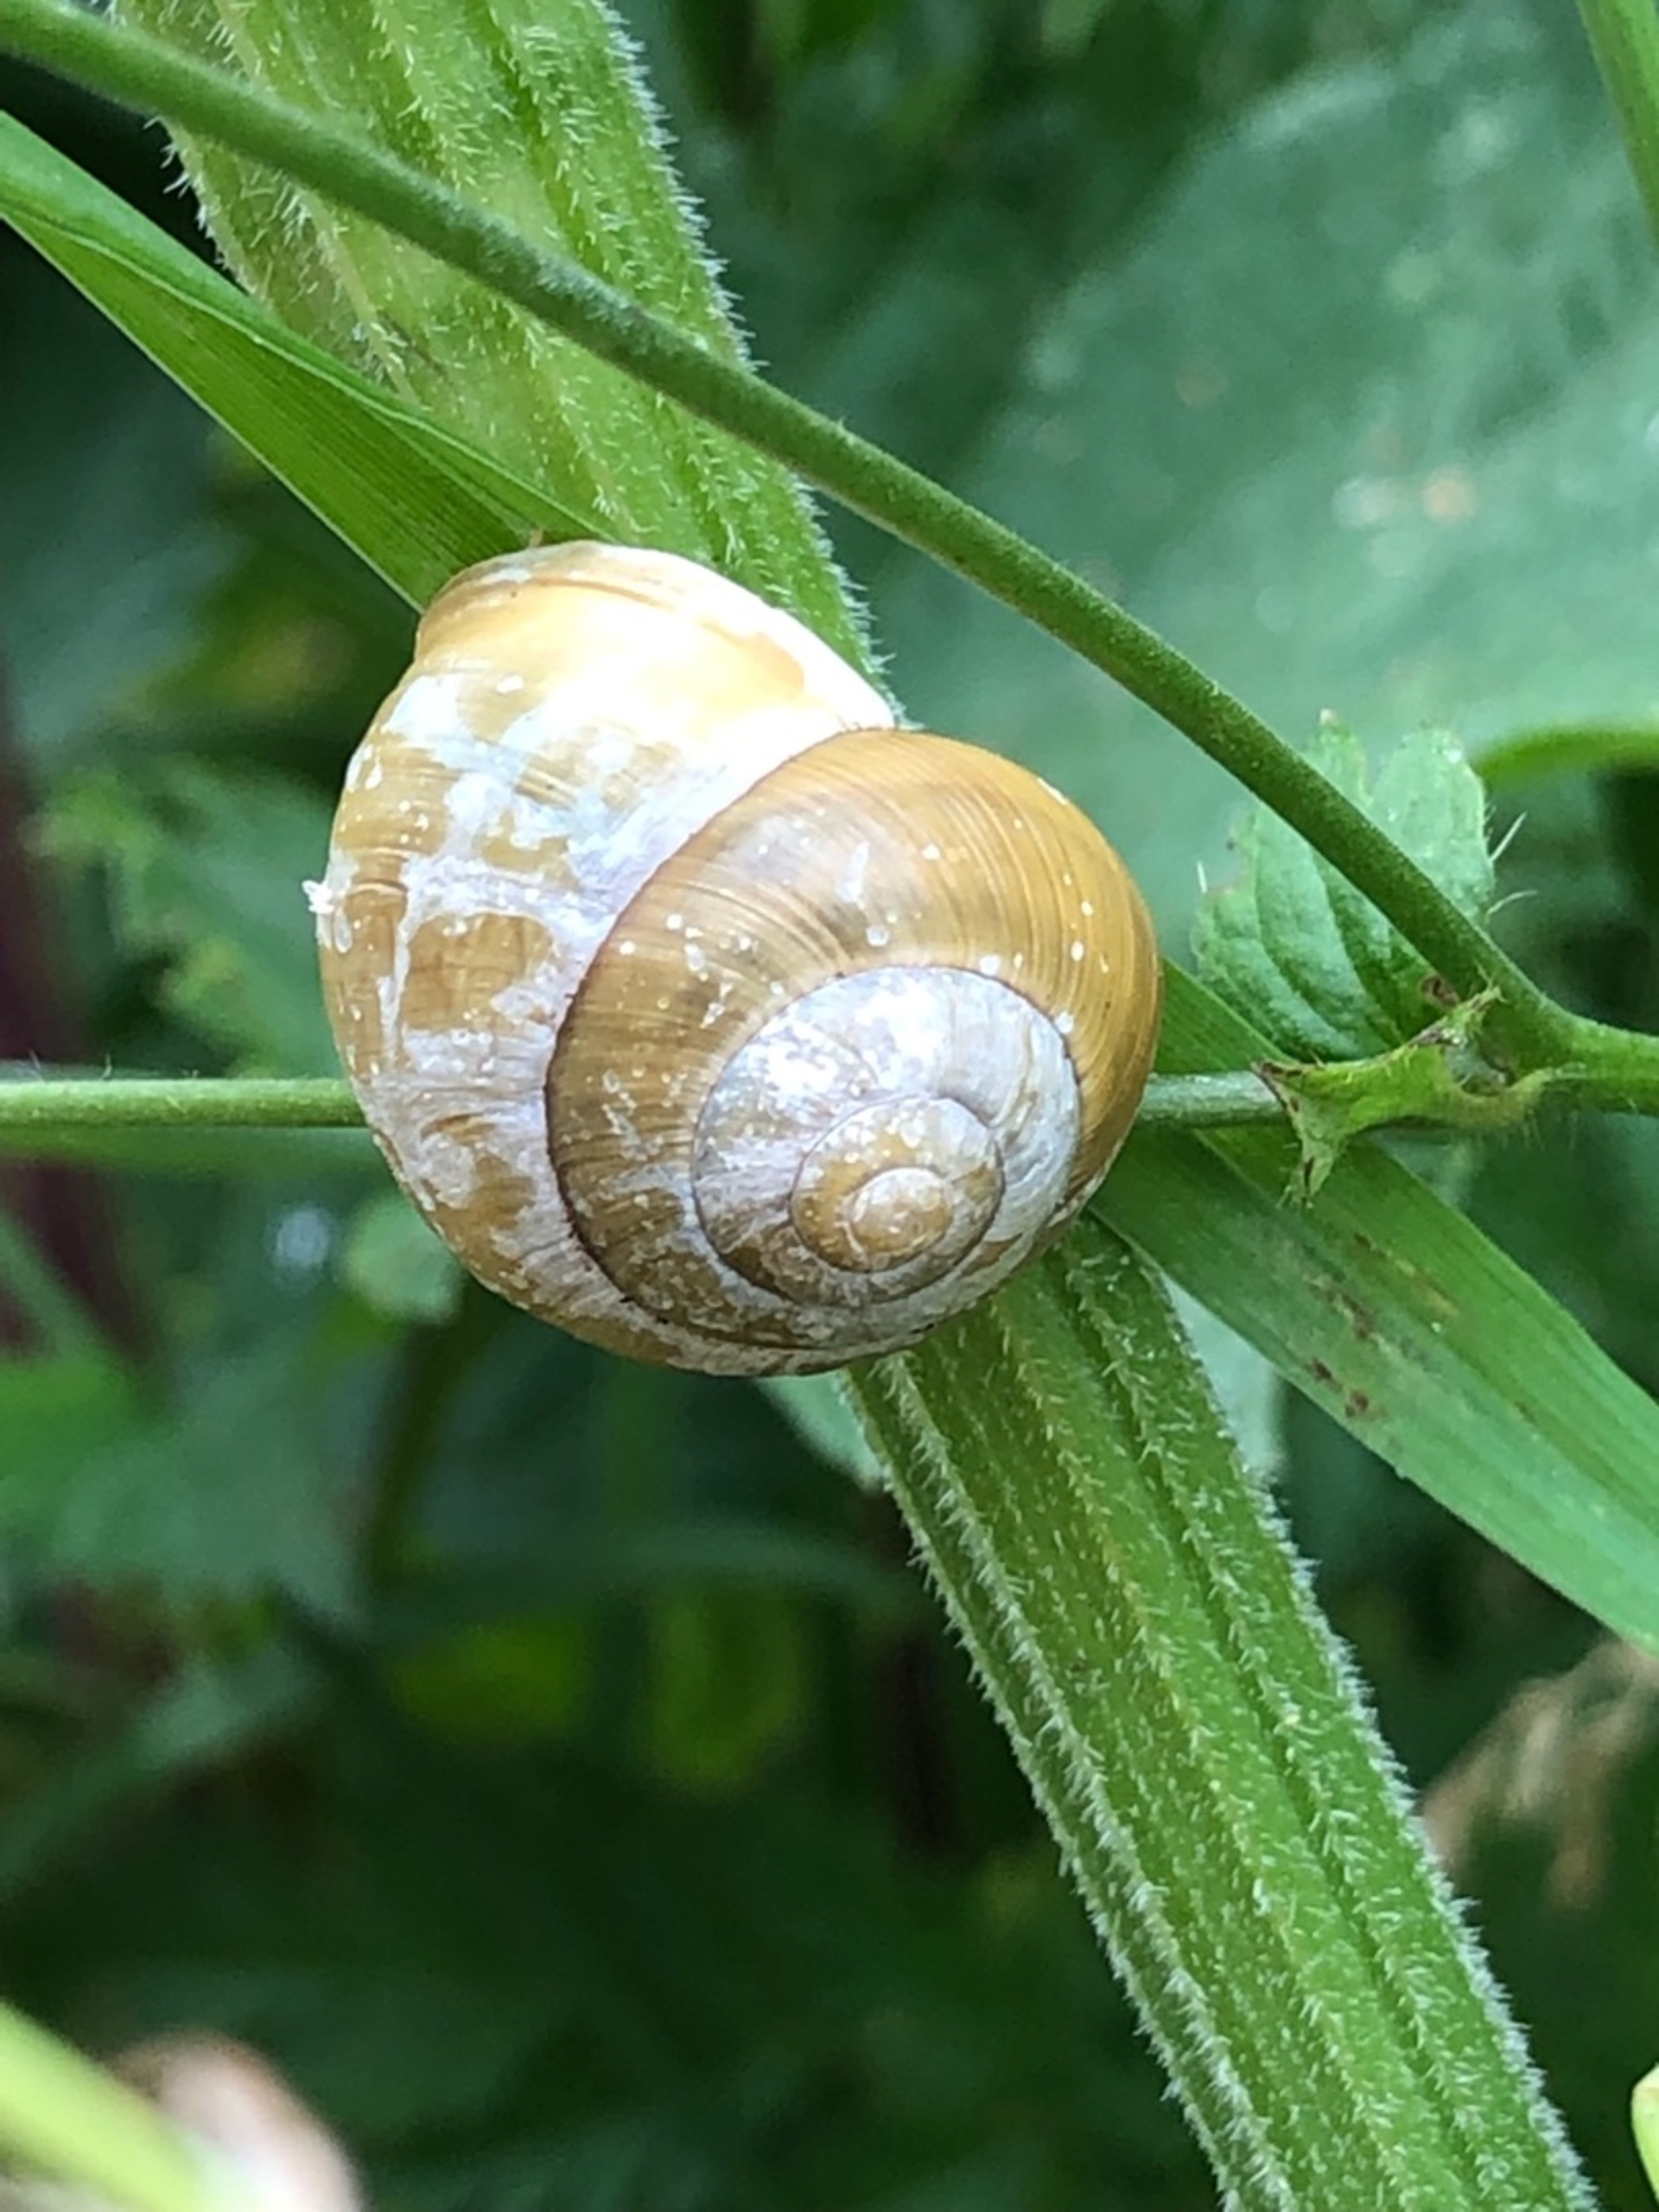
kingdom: Animalia
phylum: Mollusca
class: Gastropoda
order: Stylommatophora
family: Helicidae
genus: Cepaea
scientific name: Cepaea hortensis
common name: Havesnegl
